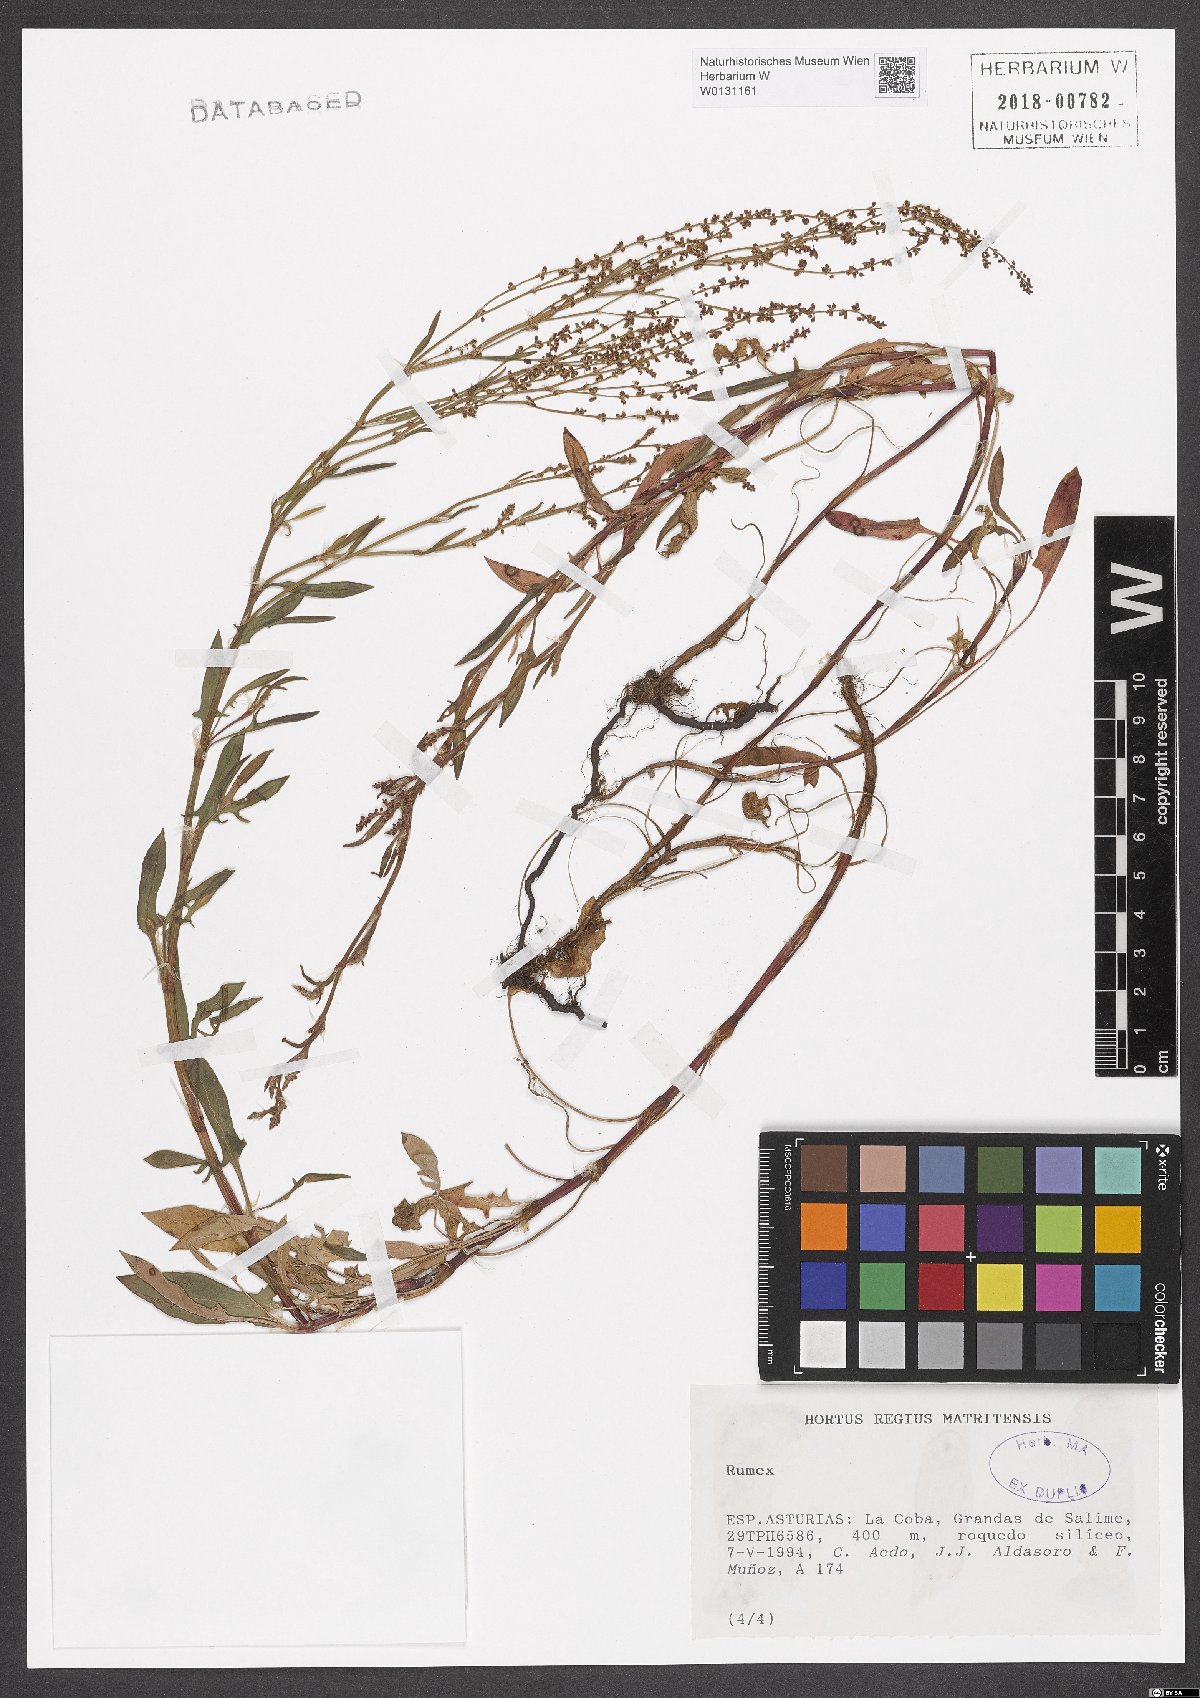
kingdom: Plantae
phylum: Tracheophyta
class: Magnoliopsida
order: Caryophyllales
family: Polygonaceae
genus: Rumex
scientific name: Rumex
